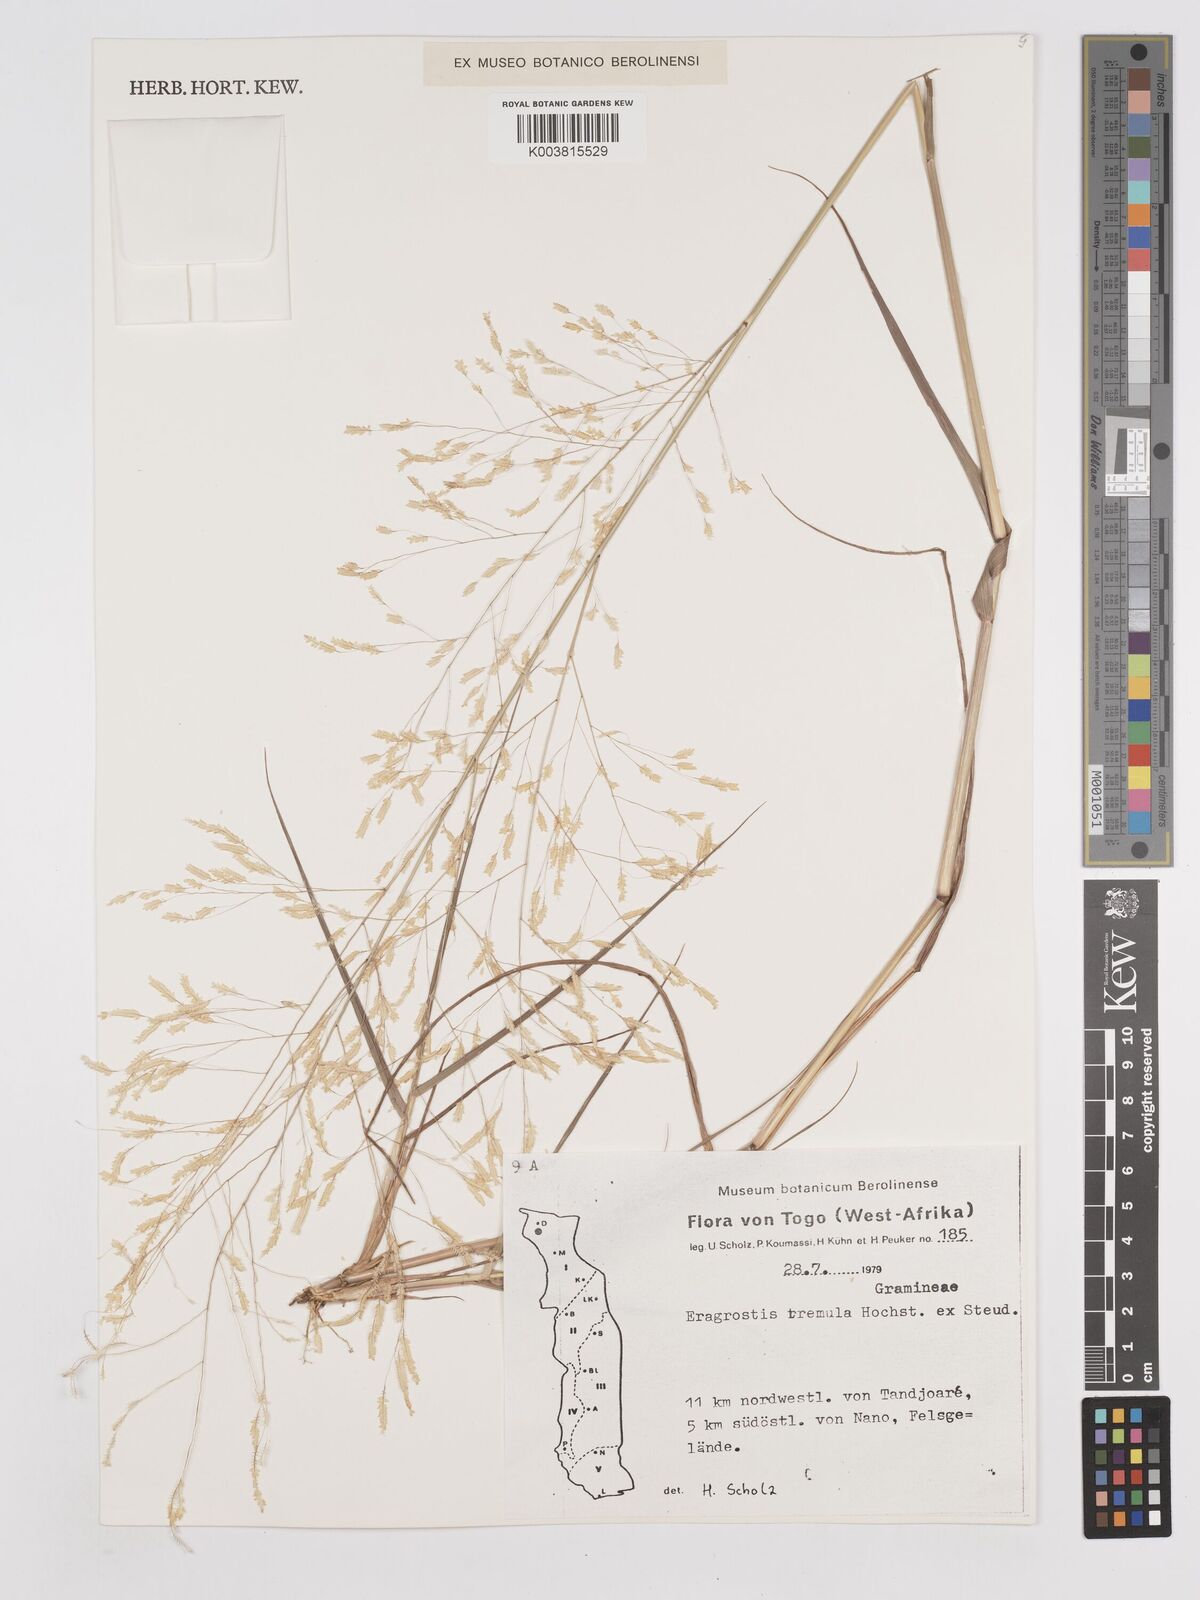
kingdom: Plantae
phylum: Tracheophyta
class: Liliopsida
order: Poales
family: Poaceae
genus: Eragrostis
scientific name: Eragrostis tremula
